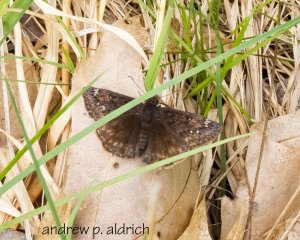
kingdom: Animalia
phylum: Arthropoda
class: Insecta
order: Lepidoptera
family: Hesperiidae
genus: Gesta
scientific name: Gesta
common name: Juvenal's Duskywing
